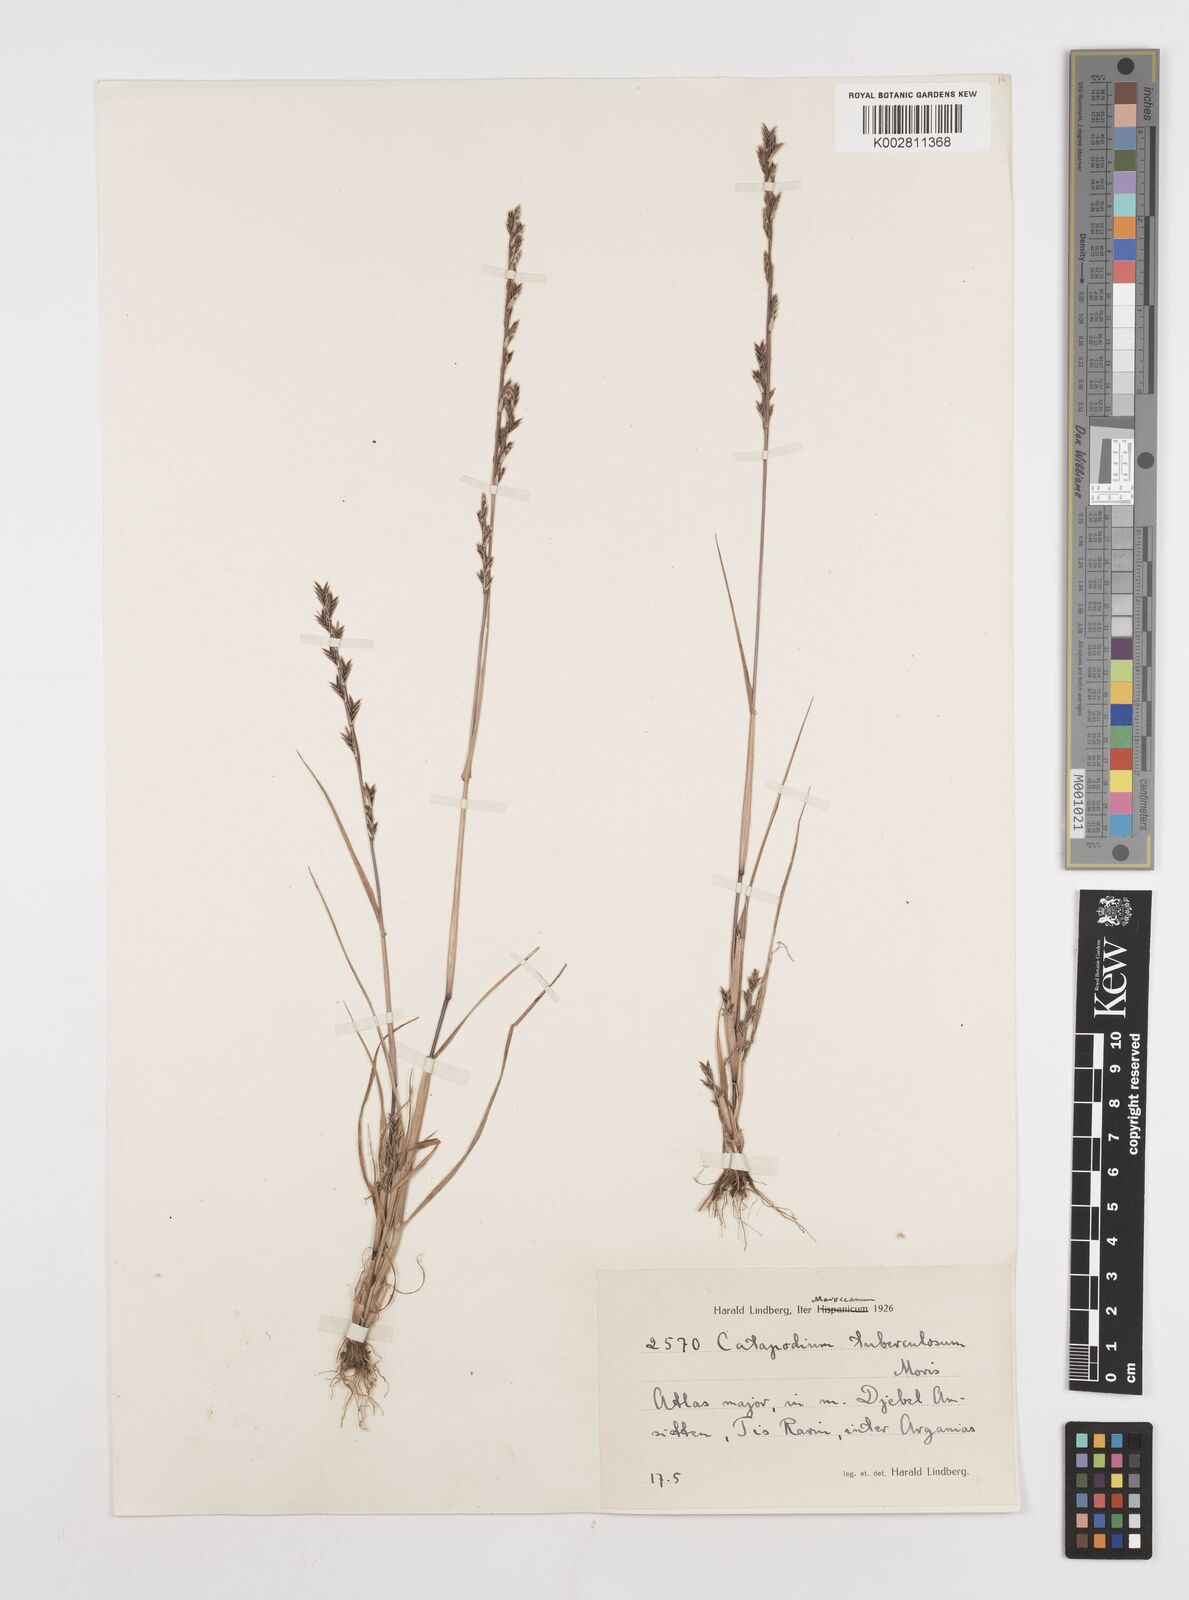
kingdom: Plantae
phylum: Tracheophyta
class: Liliopsida
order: Poales
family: Poaceae
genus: Castellia
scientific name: Castellia tuberculosa
